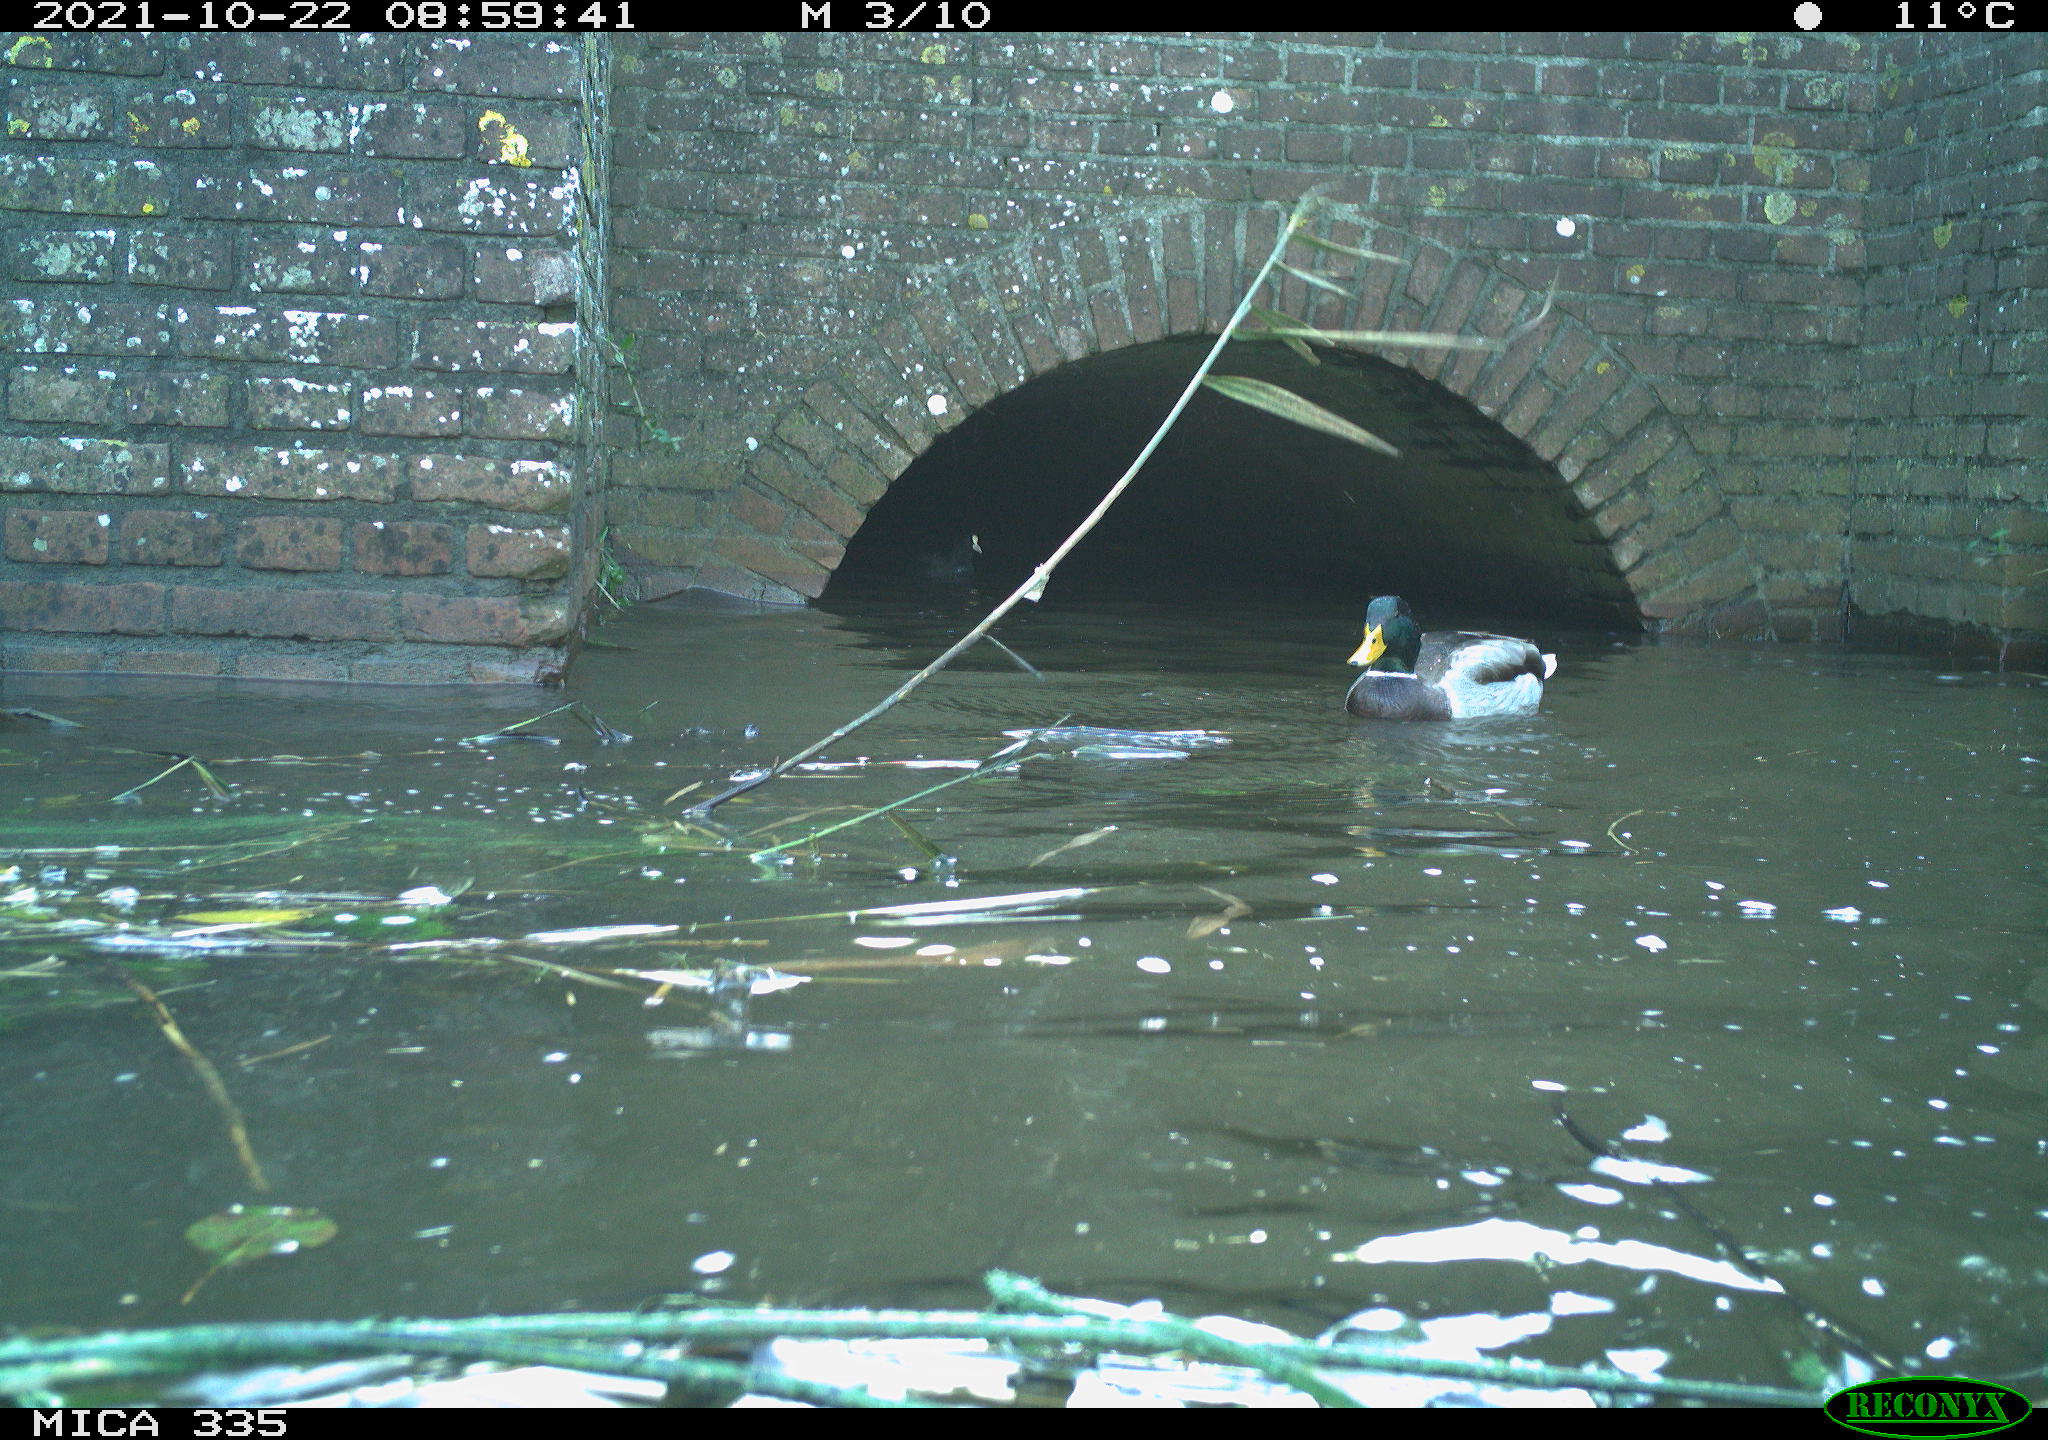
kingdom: Animalia
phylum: Chordata
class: Aves
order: Anseriformes
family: Anatidae
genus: Anas
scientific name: Anas platyrhynchos
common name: Mallard
